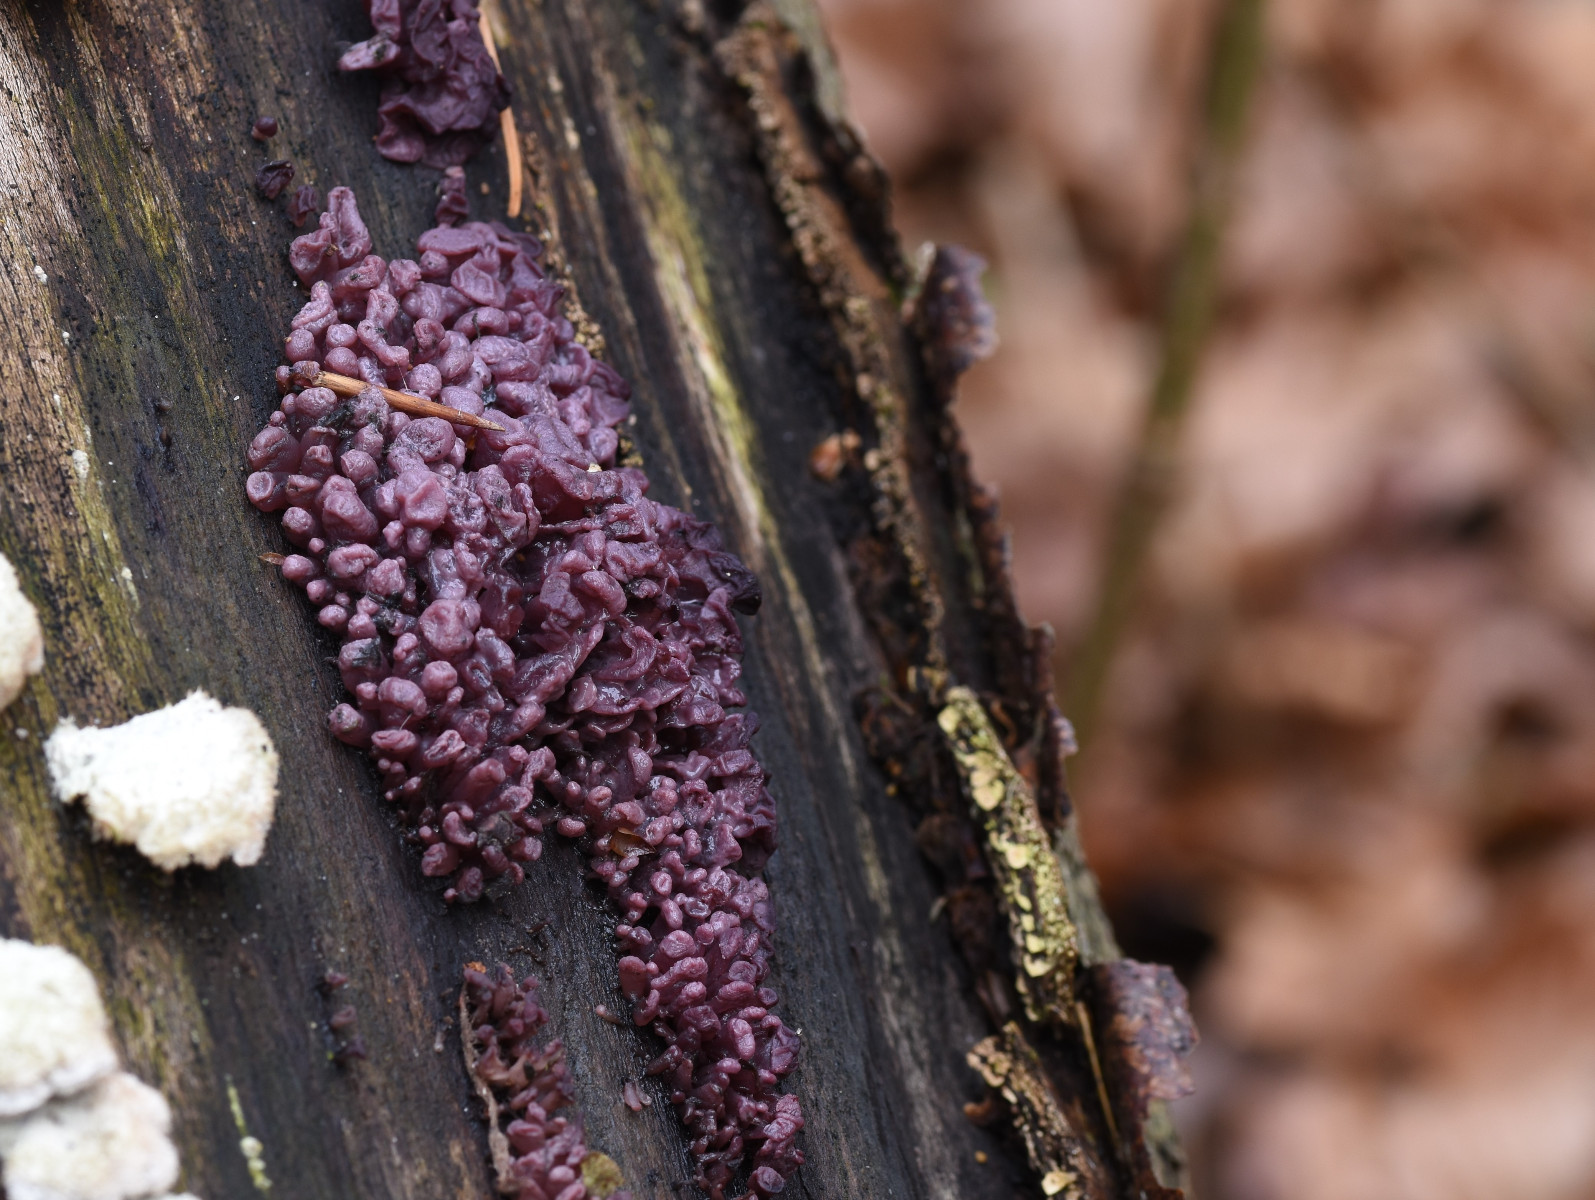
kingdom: Fungi
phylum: Ascomycota
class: Leotiomycetes
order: Helotiales
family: Gelatinodiscaceae
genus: Ascocoryne
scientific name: Ascocoryne sarcoides
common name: rødlilla sejskive
